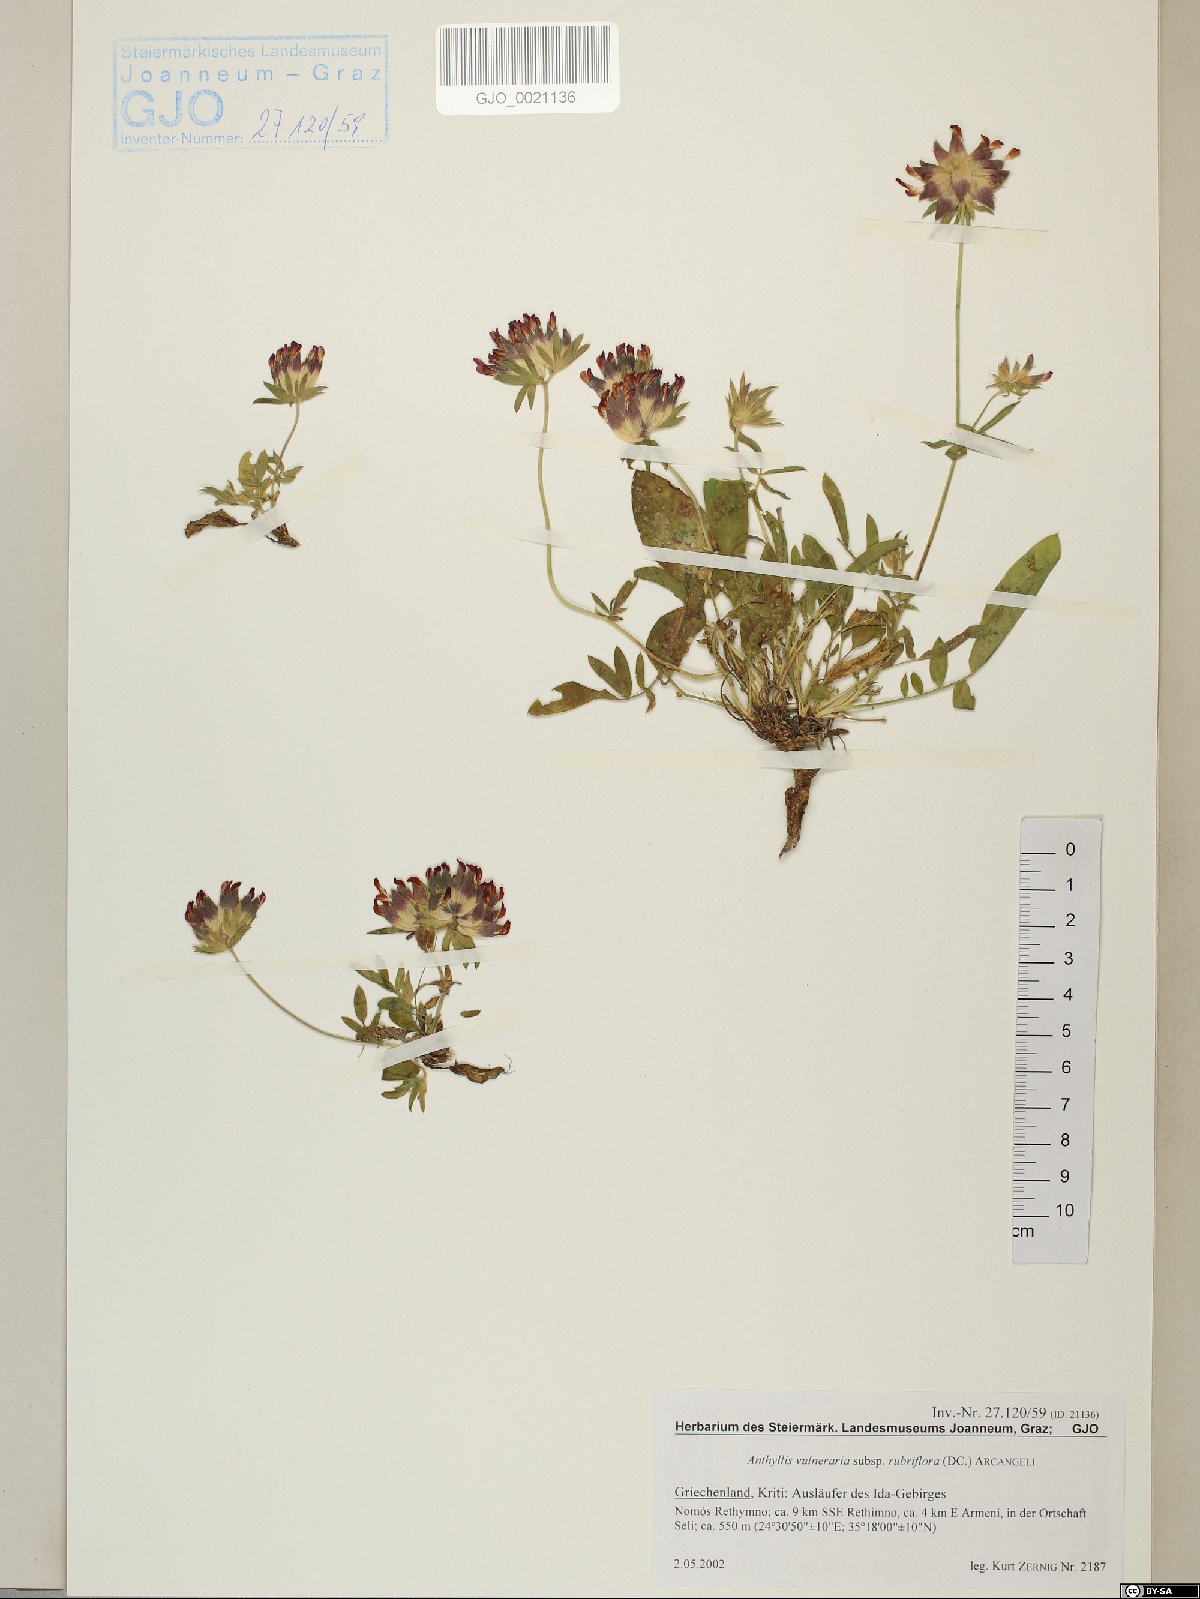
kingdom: Plantae
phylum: Tracheophyta
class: Magnoliopsida
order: Fabales
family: Fabaceae
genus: Anthyllis
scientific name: Anthyllis vulneraria
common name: Kidney vetch
